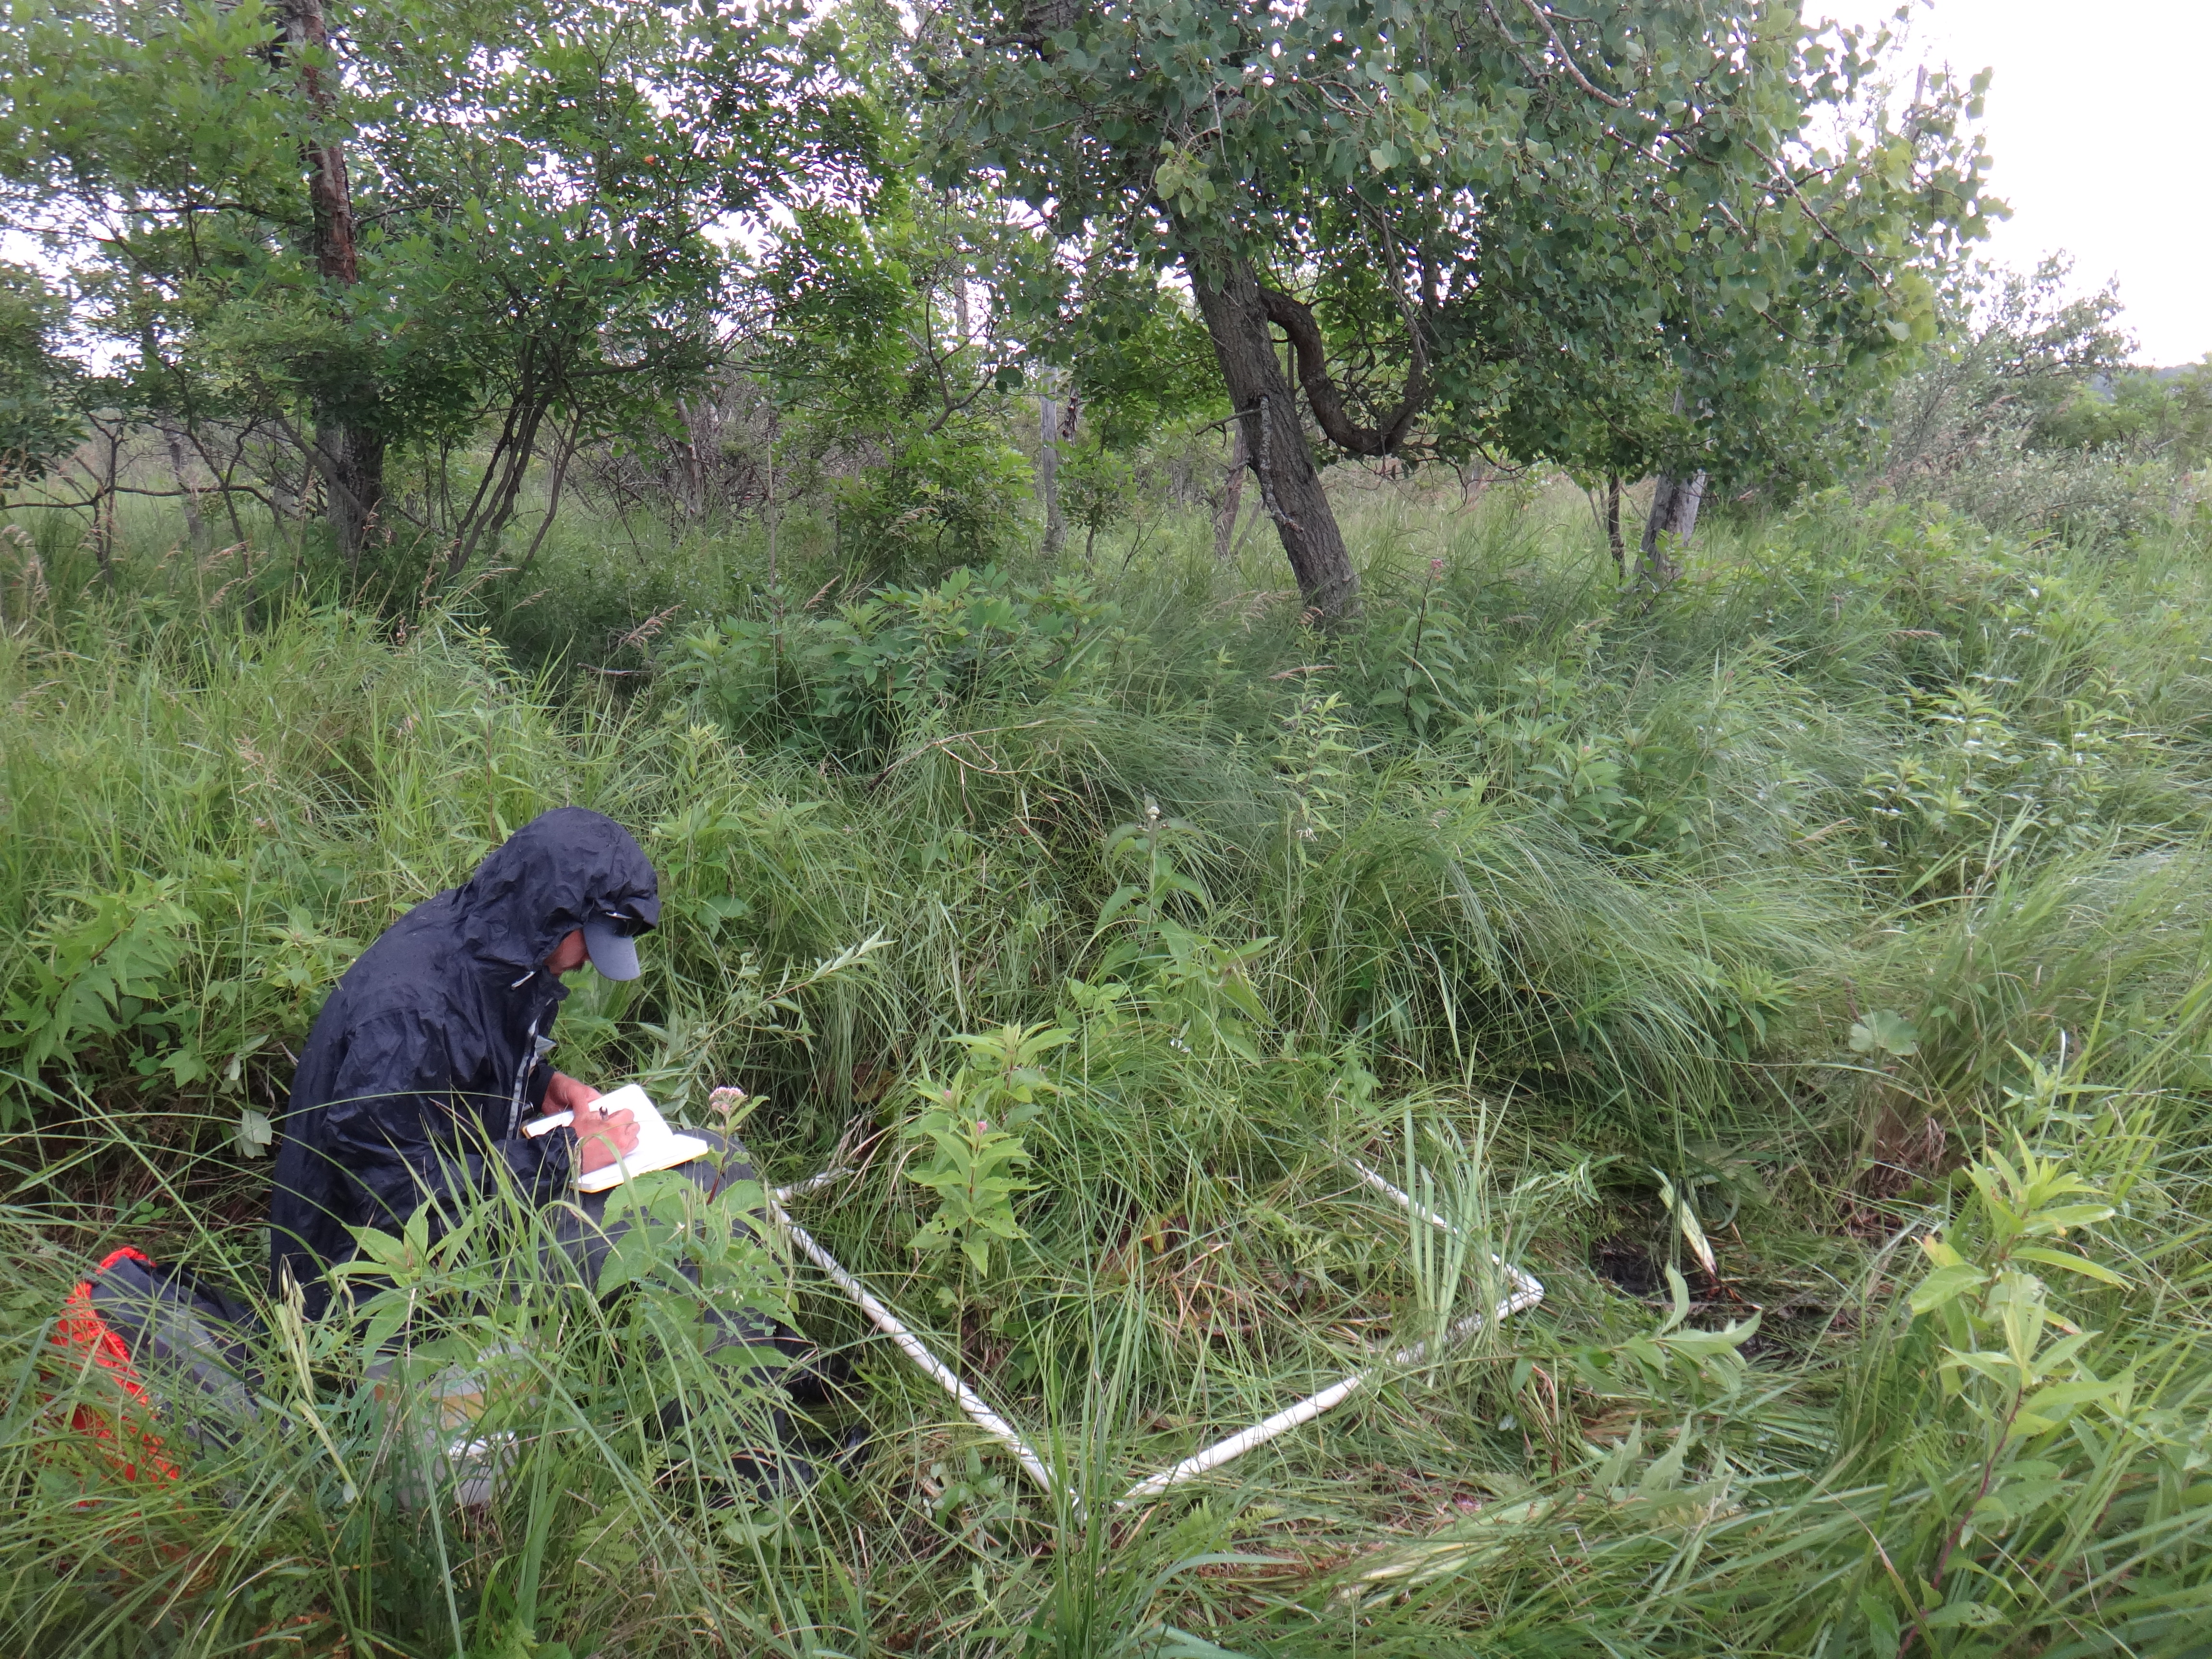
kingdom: Plantae
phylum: Tracheophyta
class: Magnoliopsida
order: Asterales
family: Asteraceae
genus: Eupatorium
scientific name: Eupatorium perfoliatum
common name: Boneset
